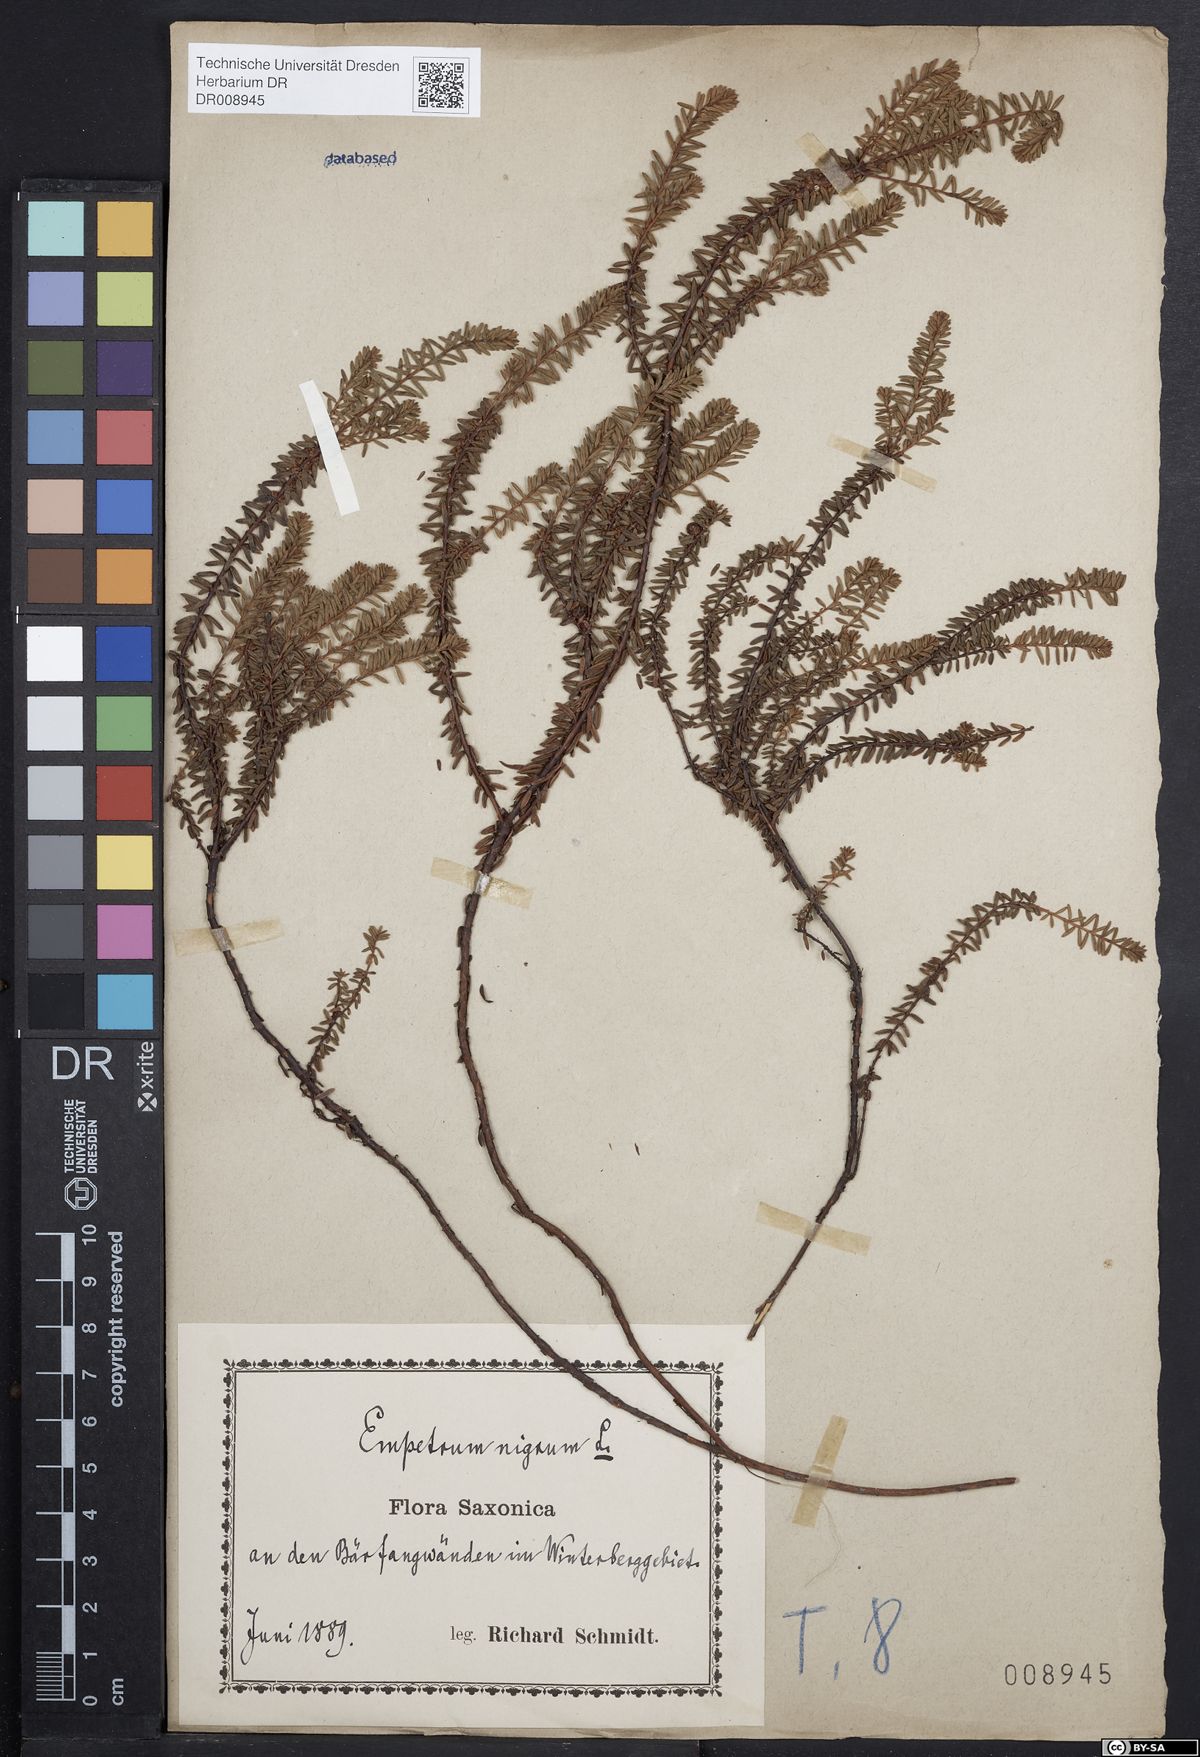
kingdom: Plantae
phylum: Tracheophyta
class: Magnoliopsida
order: Ericales
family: Ericaceae
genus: Empetrum
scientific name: Empetrum nigrum
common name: Black crowberry
